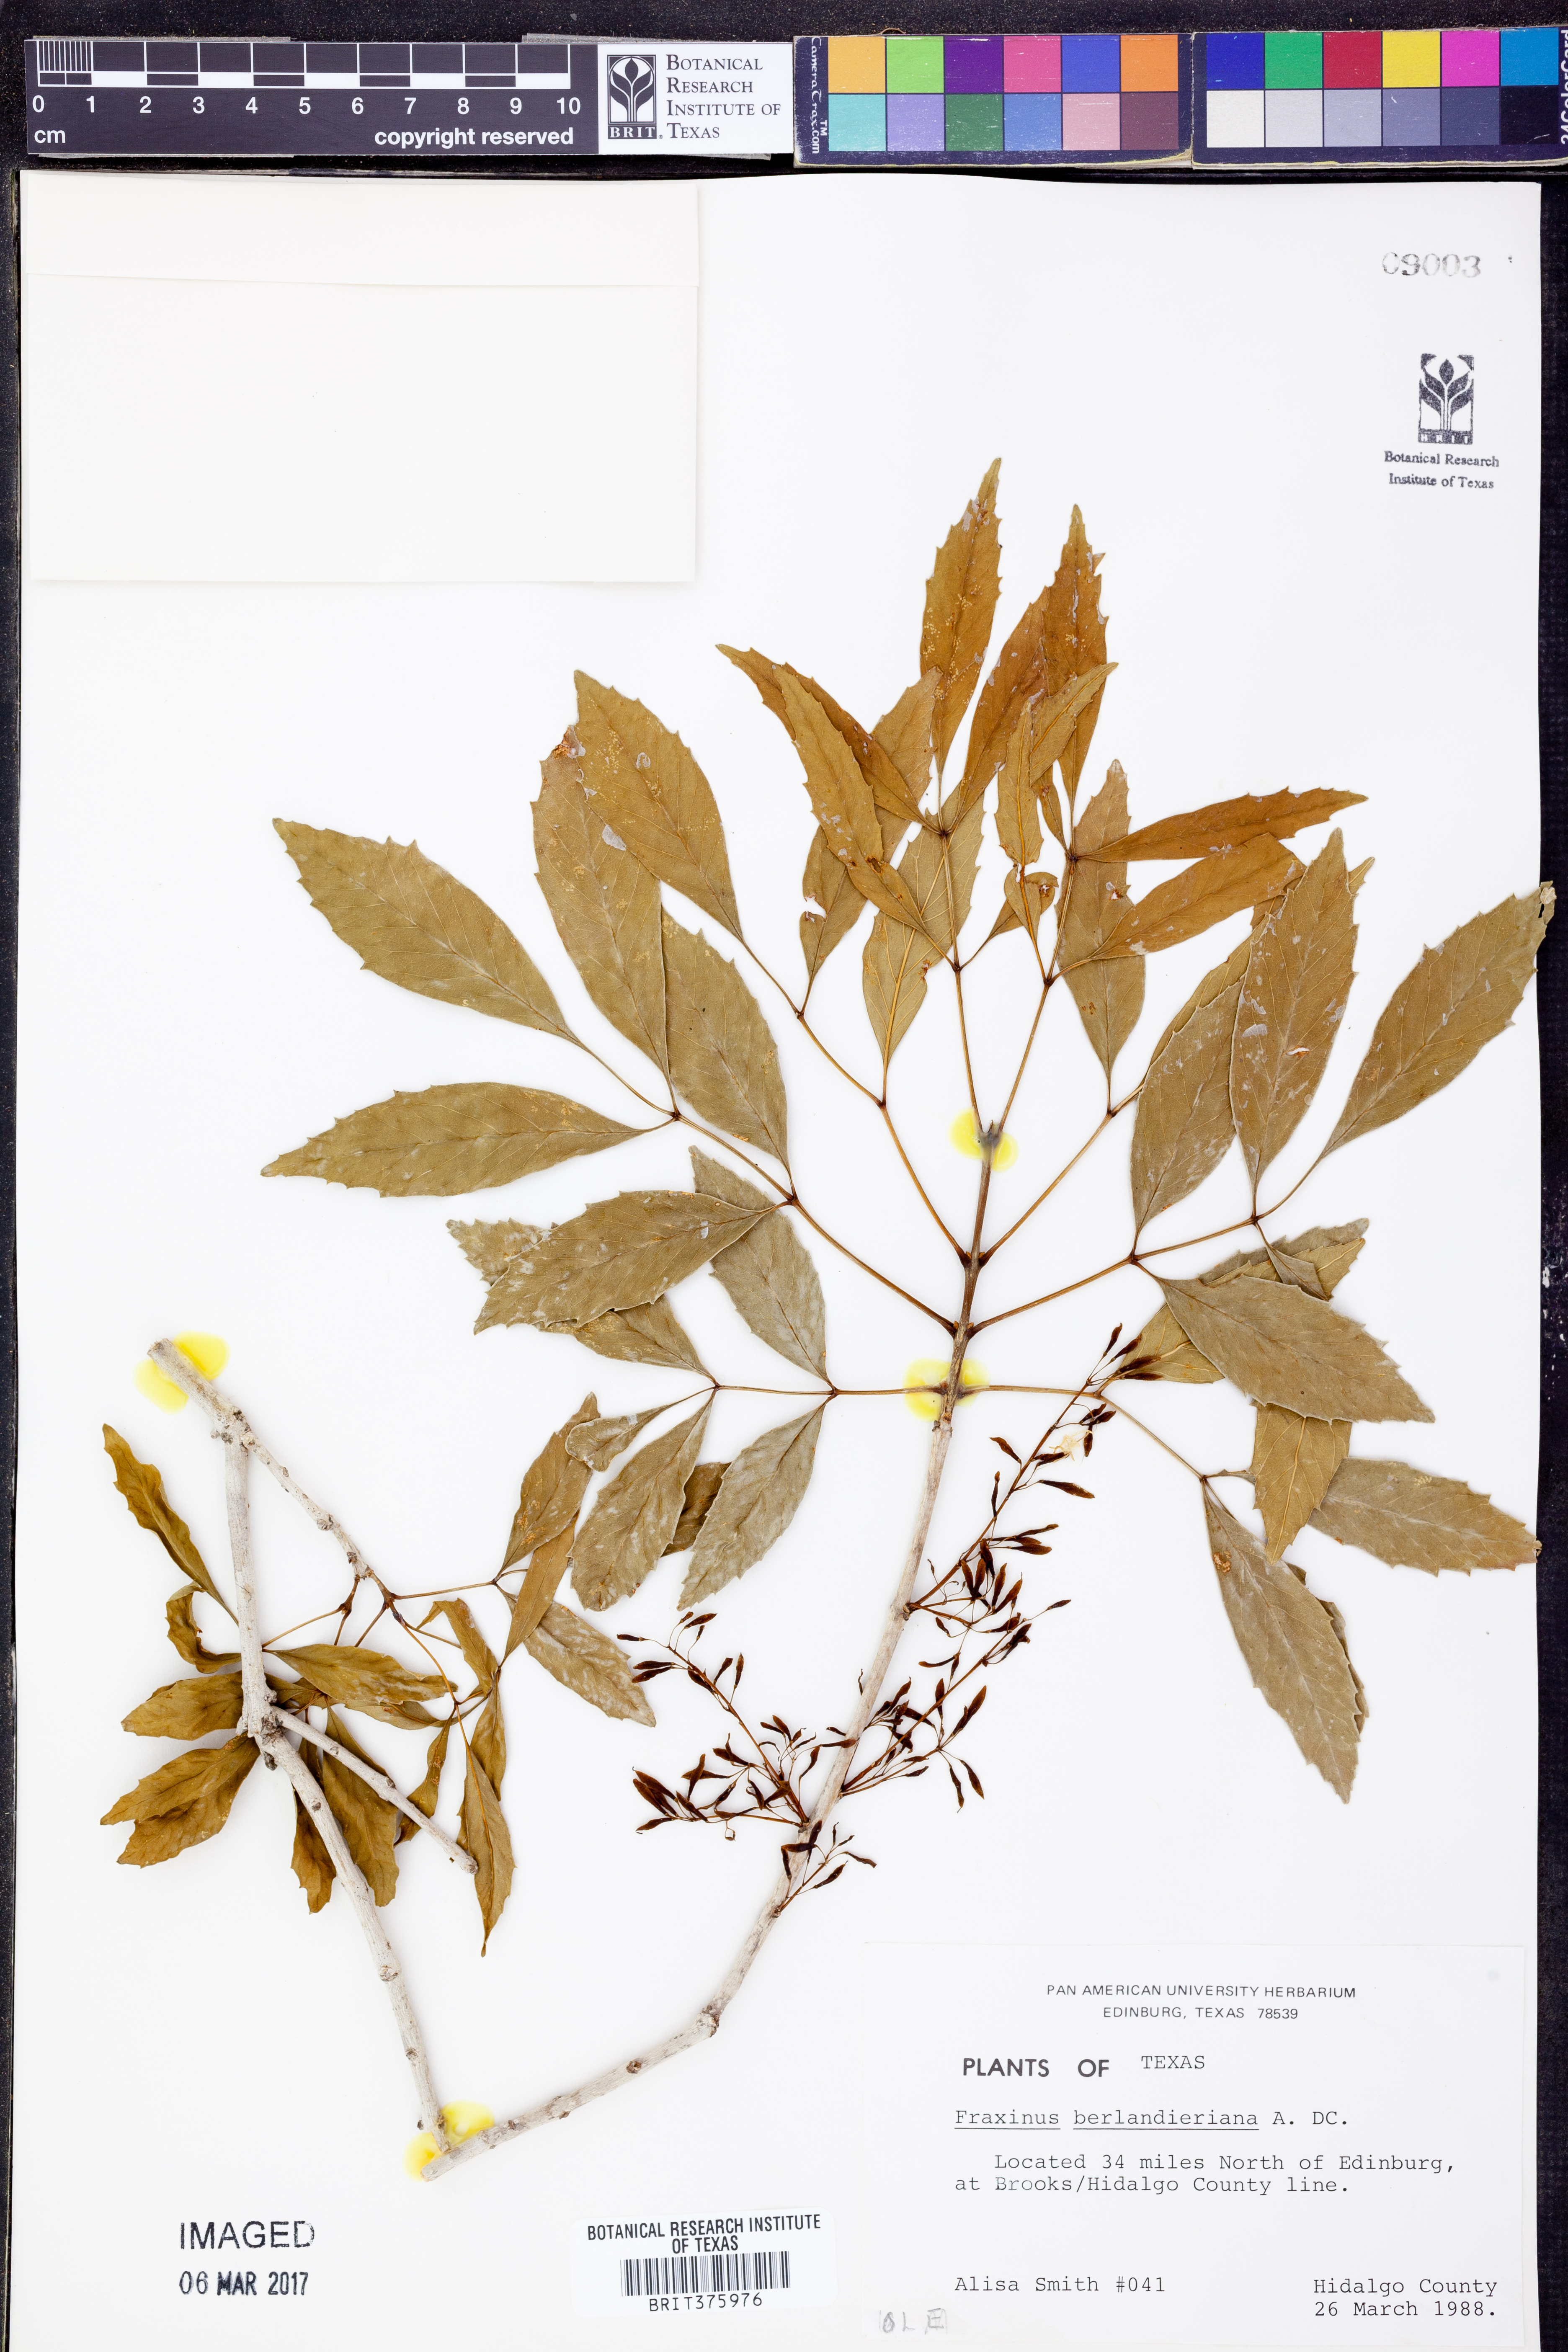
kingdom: Plantae
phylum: Tracheophyta
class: Magnoliopsida
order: Lamiales
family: Oleaceae
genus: Fraxinus
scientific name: Fraxinus berlandieriana
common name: Berlandier ash
